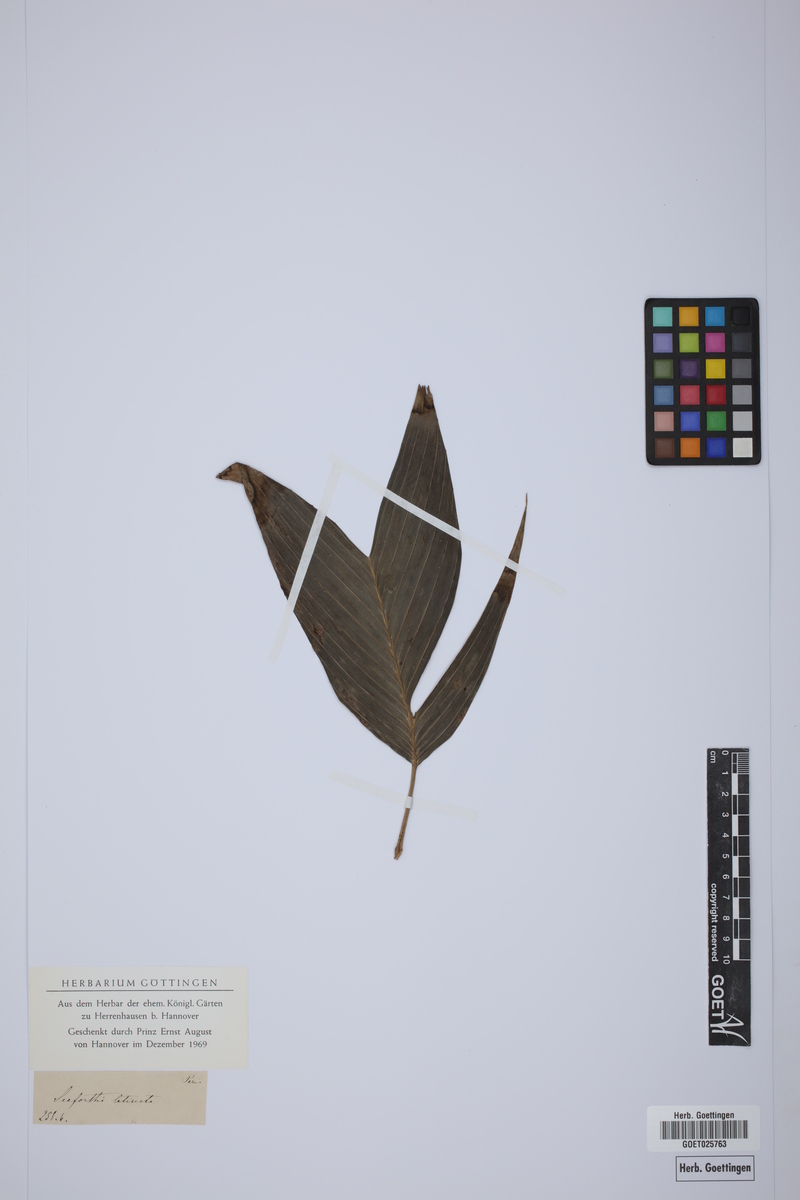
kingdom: Plantae
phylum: Tracheophyta
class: Liliopsida
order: Arecales
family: Arecaceae
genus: Pinanga
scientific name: Pinanga latisecta
